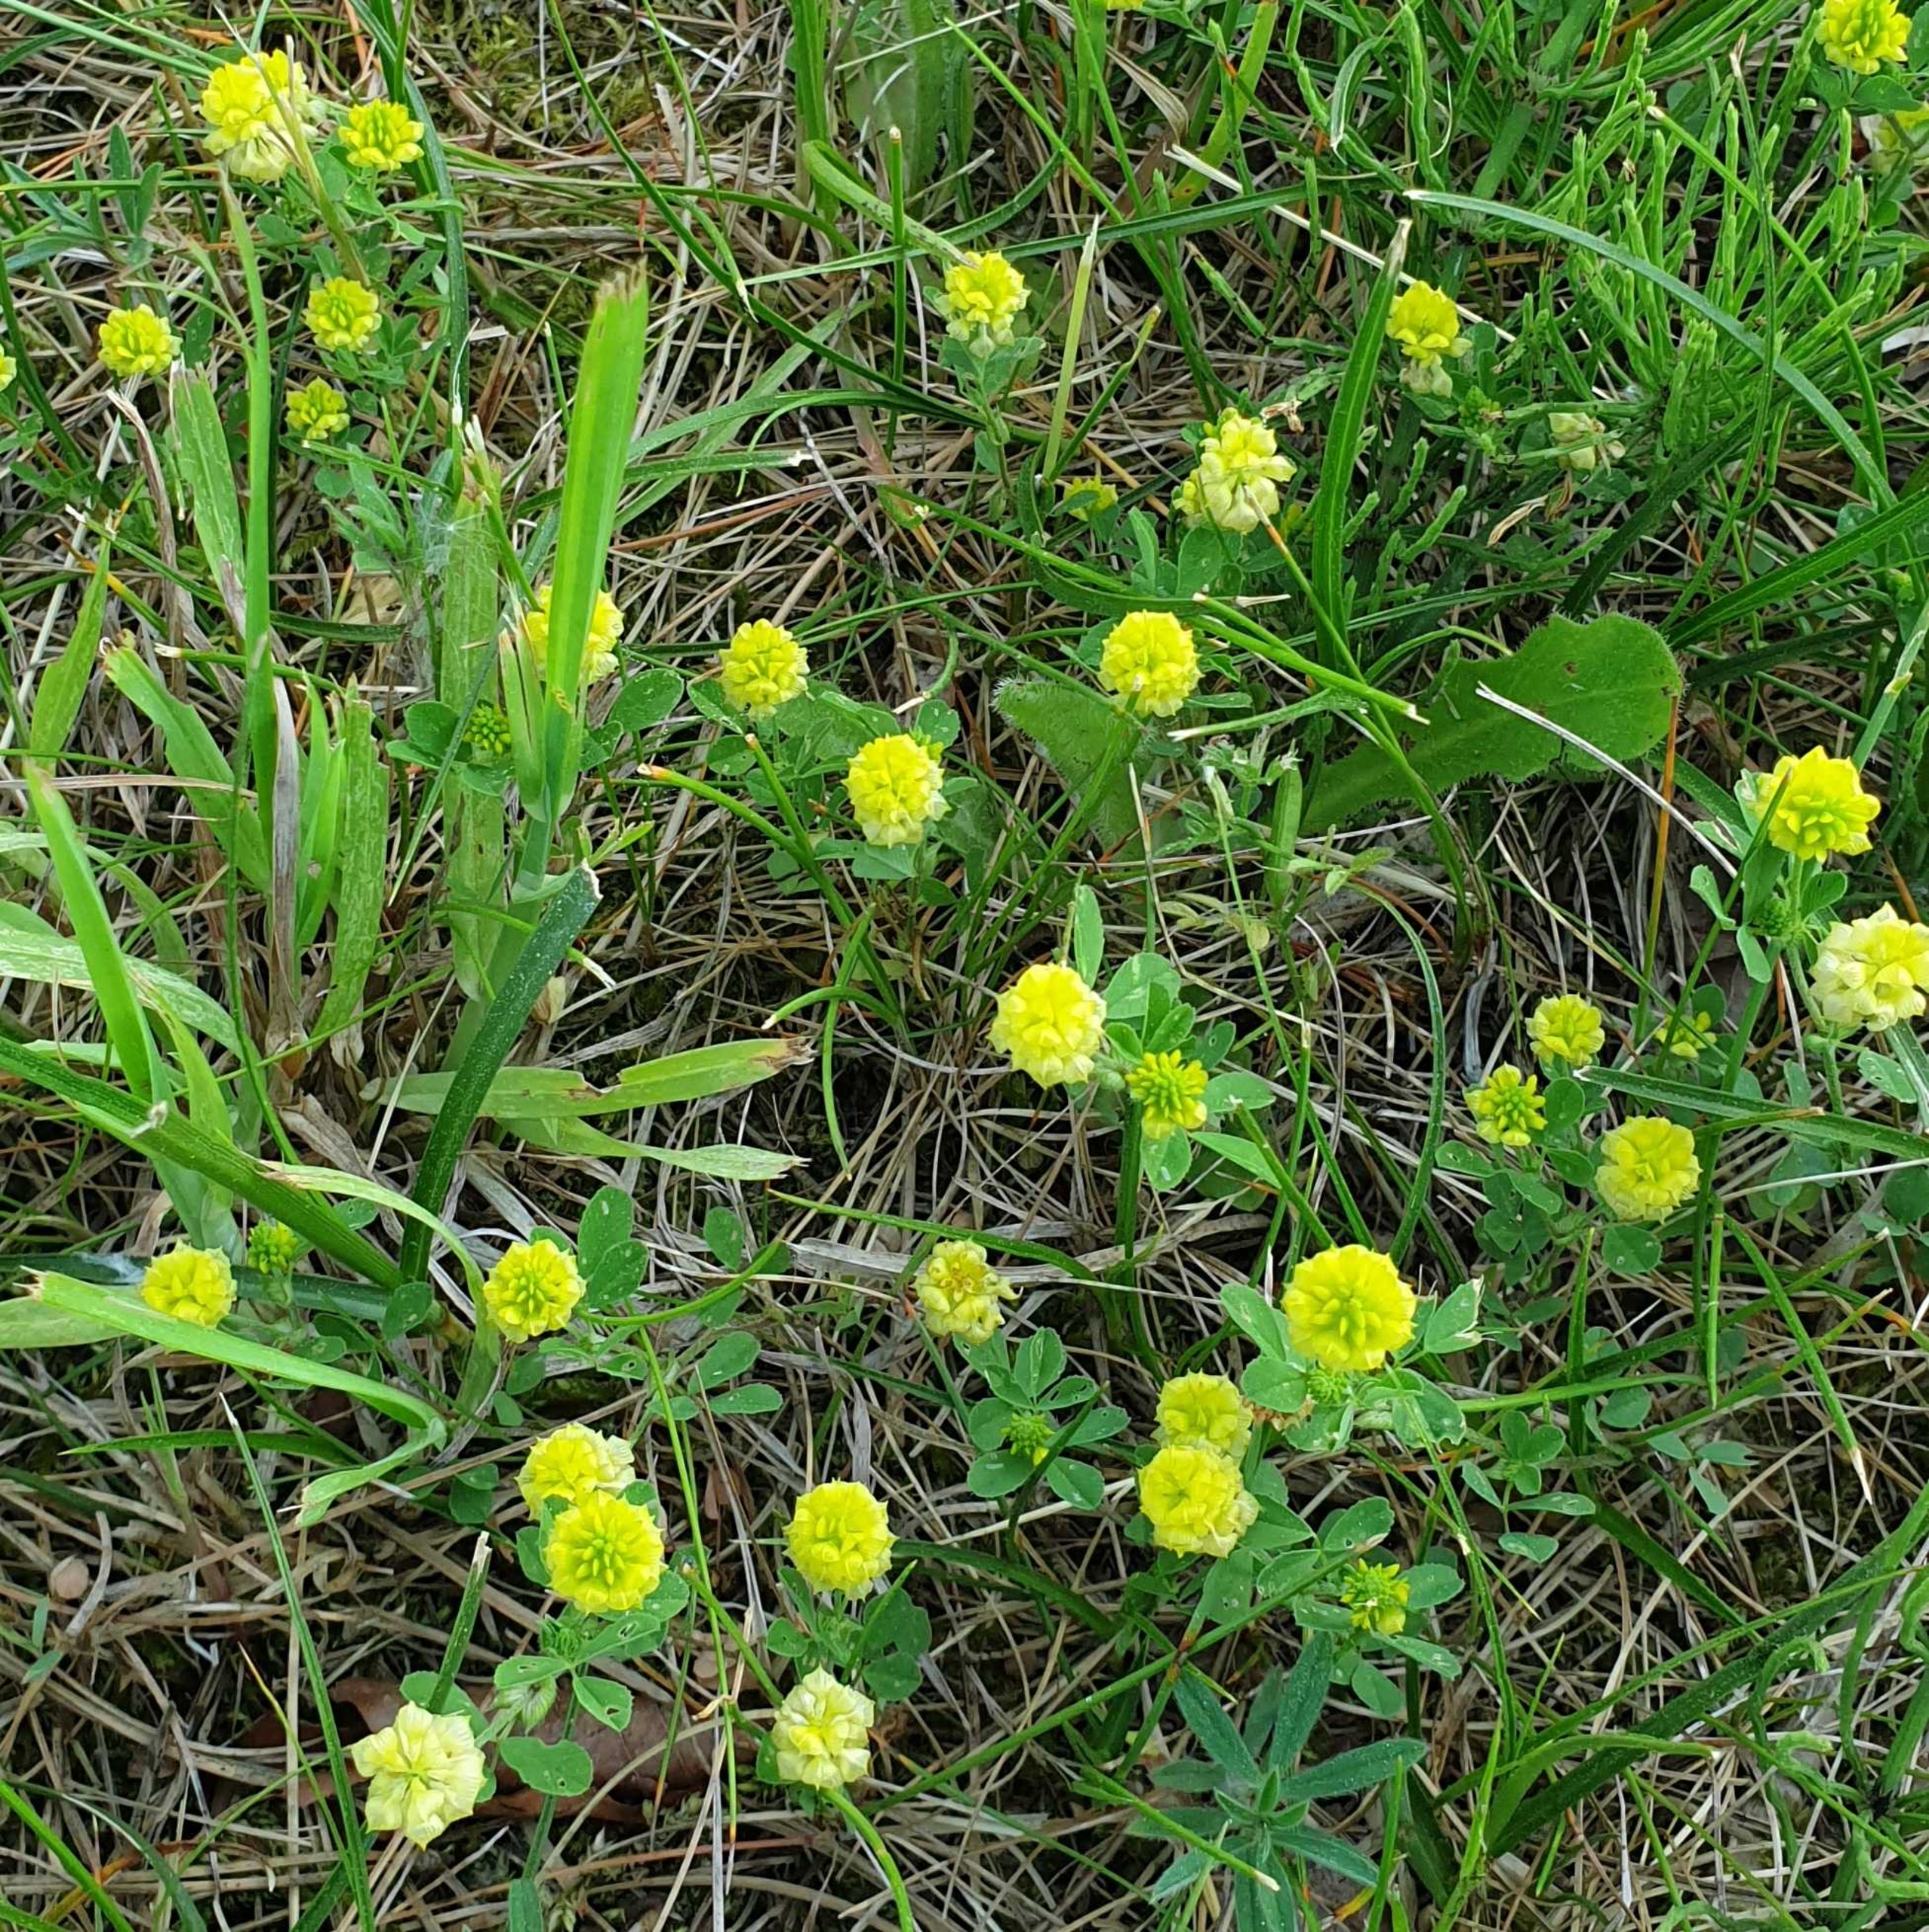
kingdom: Plantae
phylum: Tracheophyta
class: Magnoliopsida
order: Fabales
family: Fabaceae
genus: Trifolium
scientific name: Trifolium campestre
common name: Gul kløver
